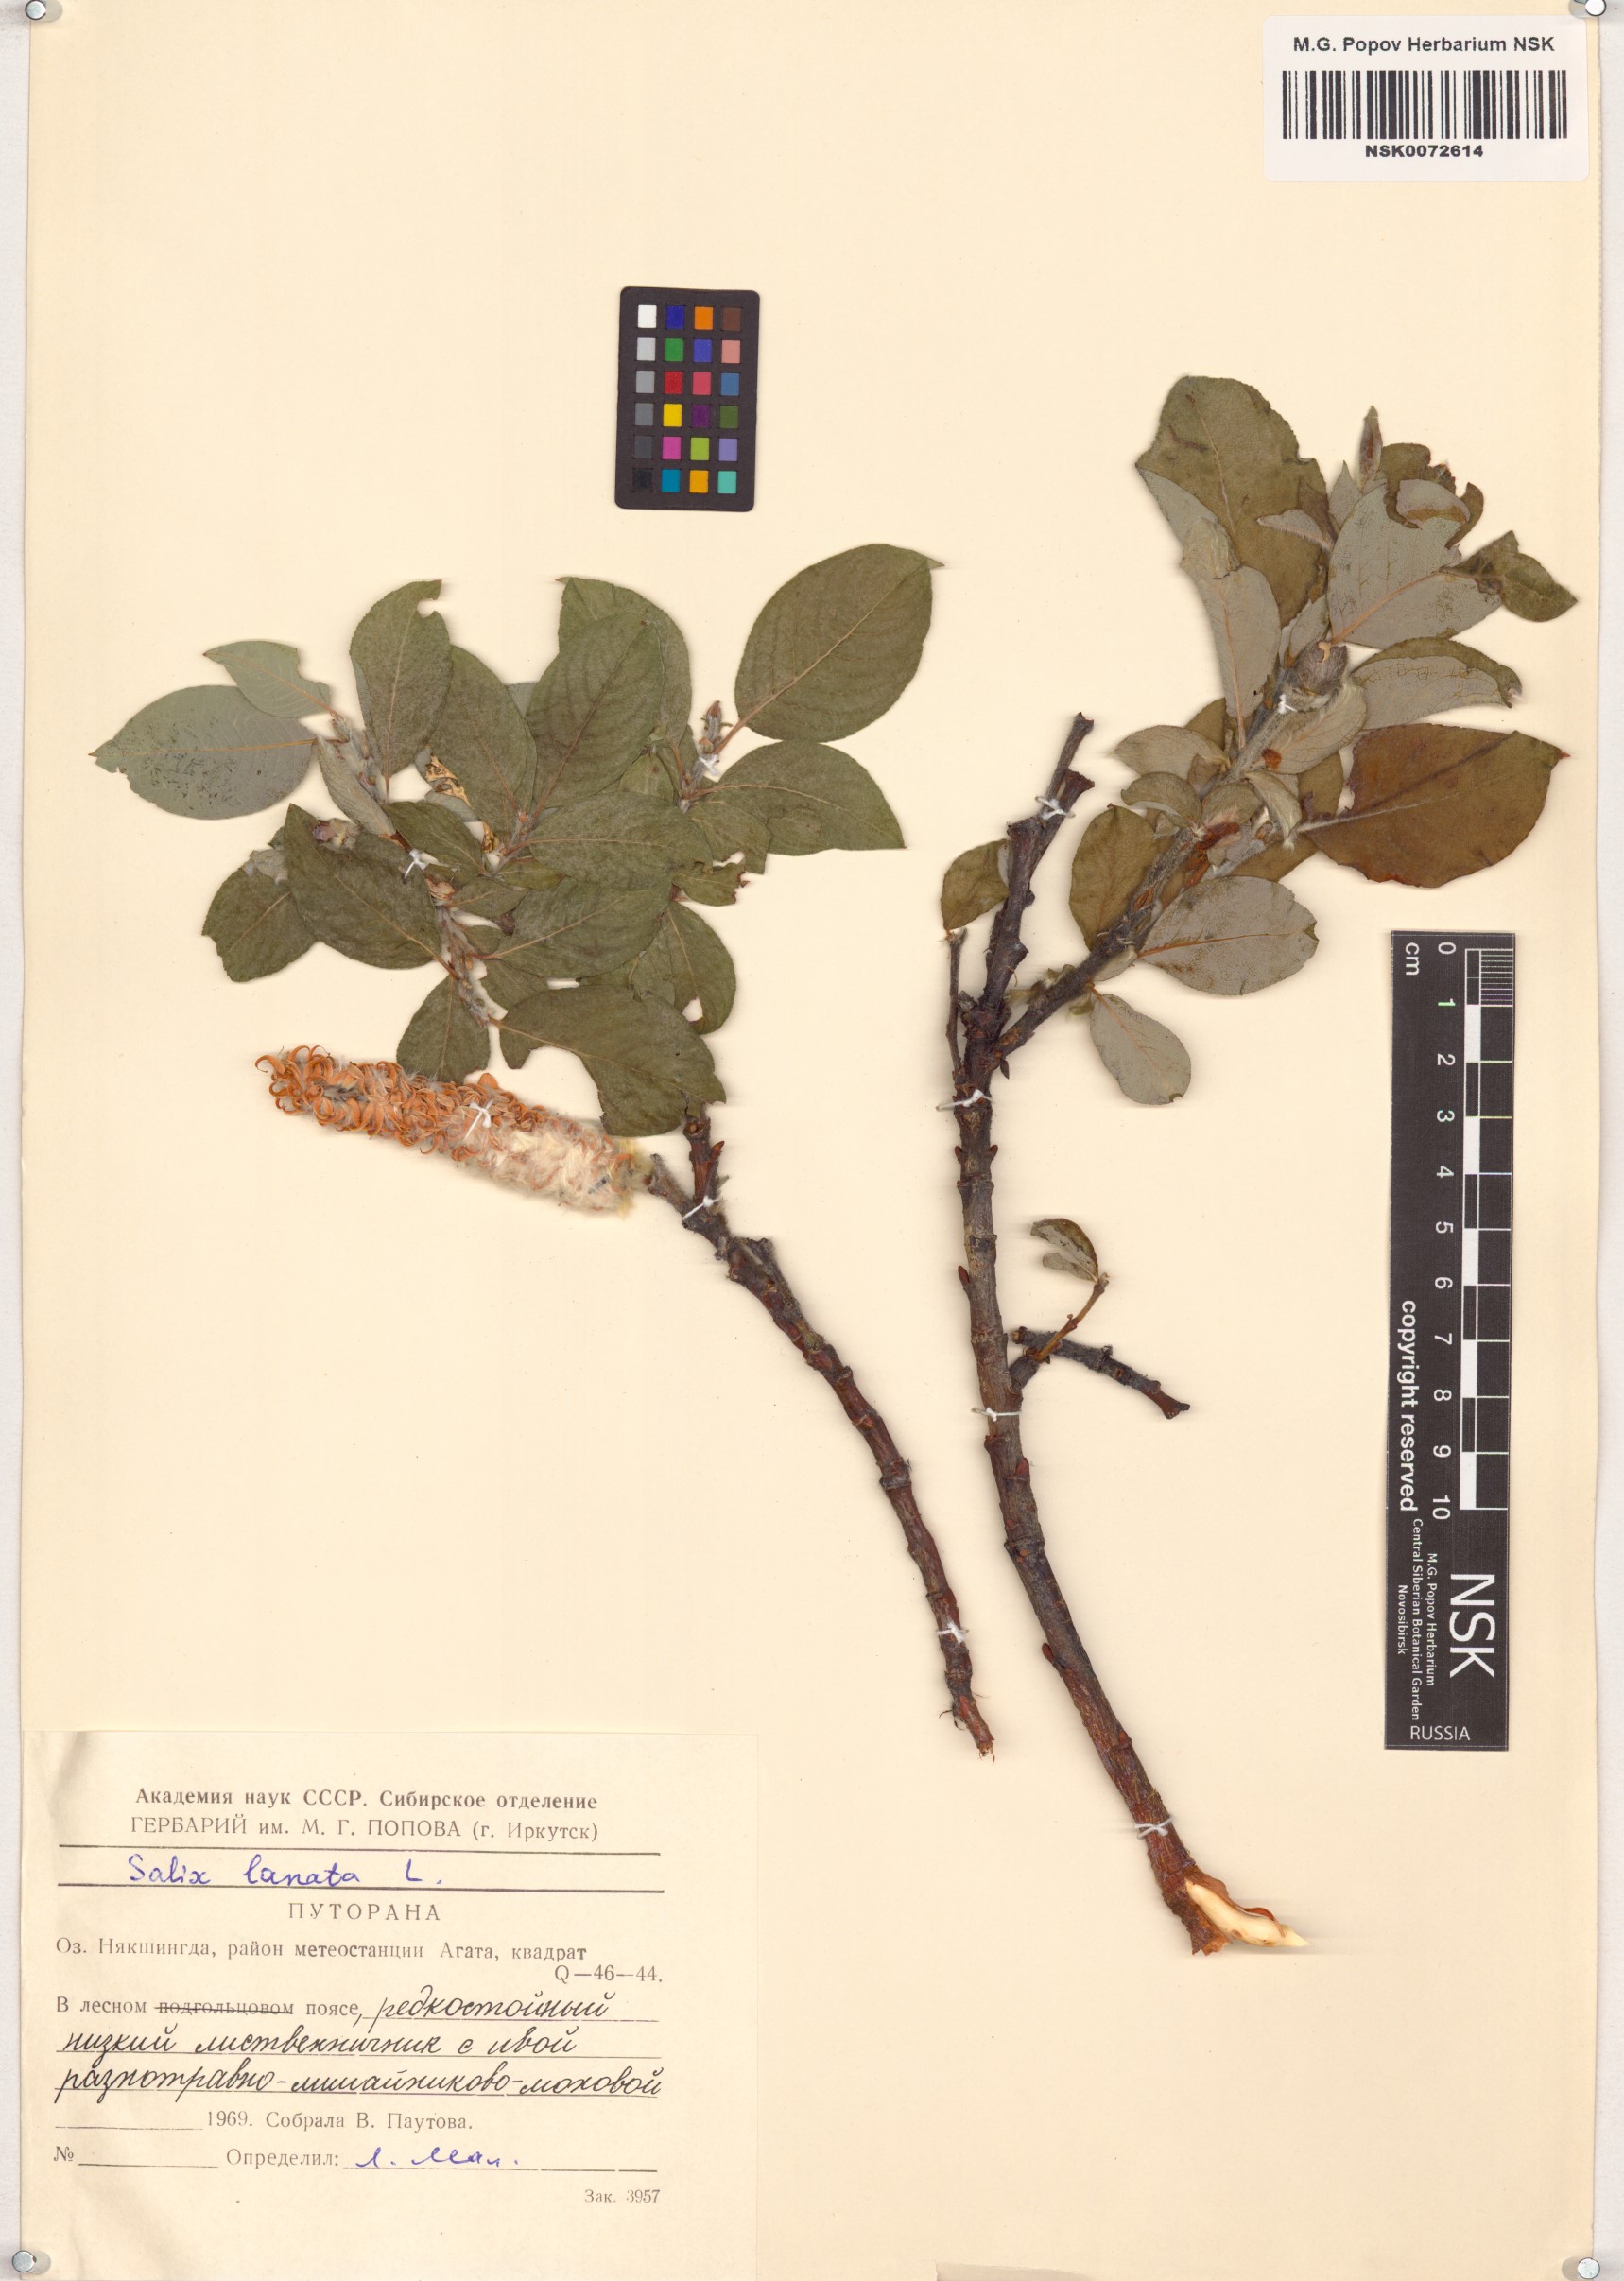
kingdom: Plantae
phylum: Tracheophyta
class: Magnoliopsida
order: Malpighiales
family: Salicaceae
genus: Salix
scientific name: Salix lanata
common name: Woolly willow
